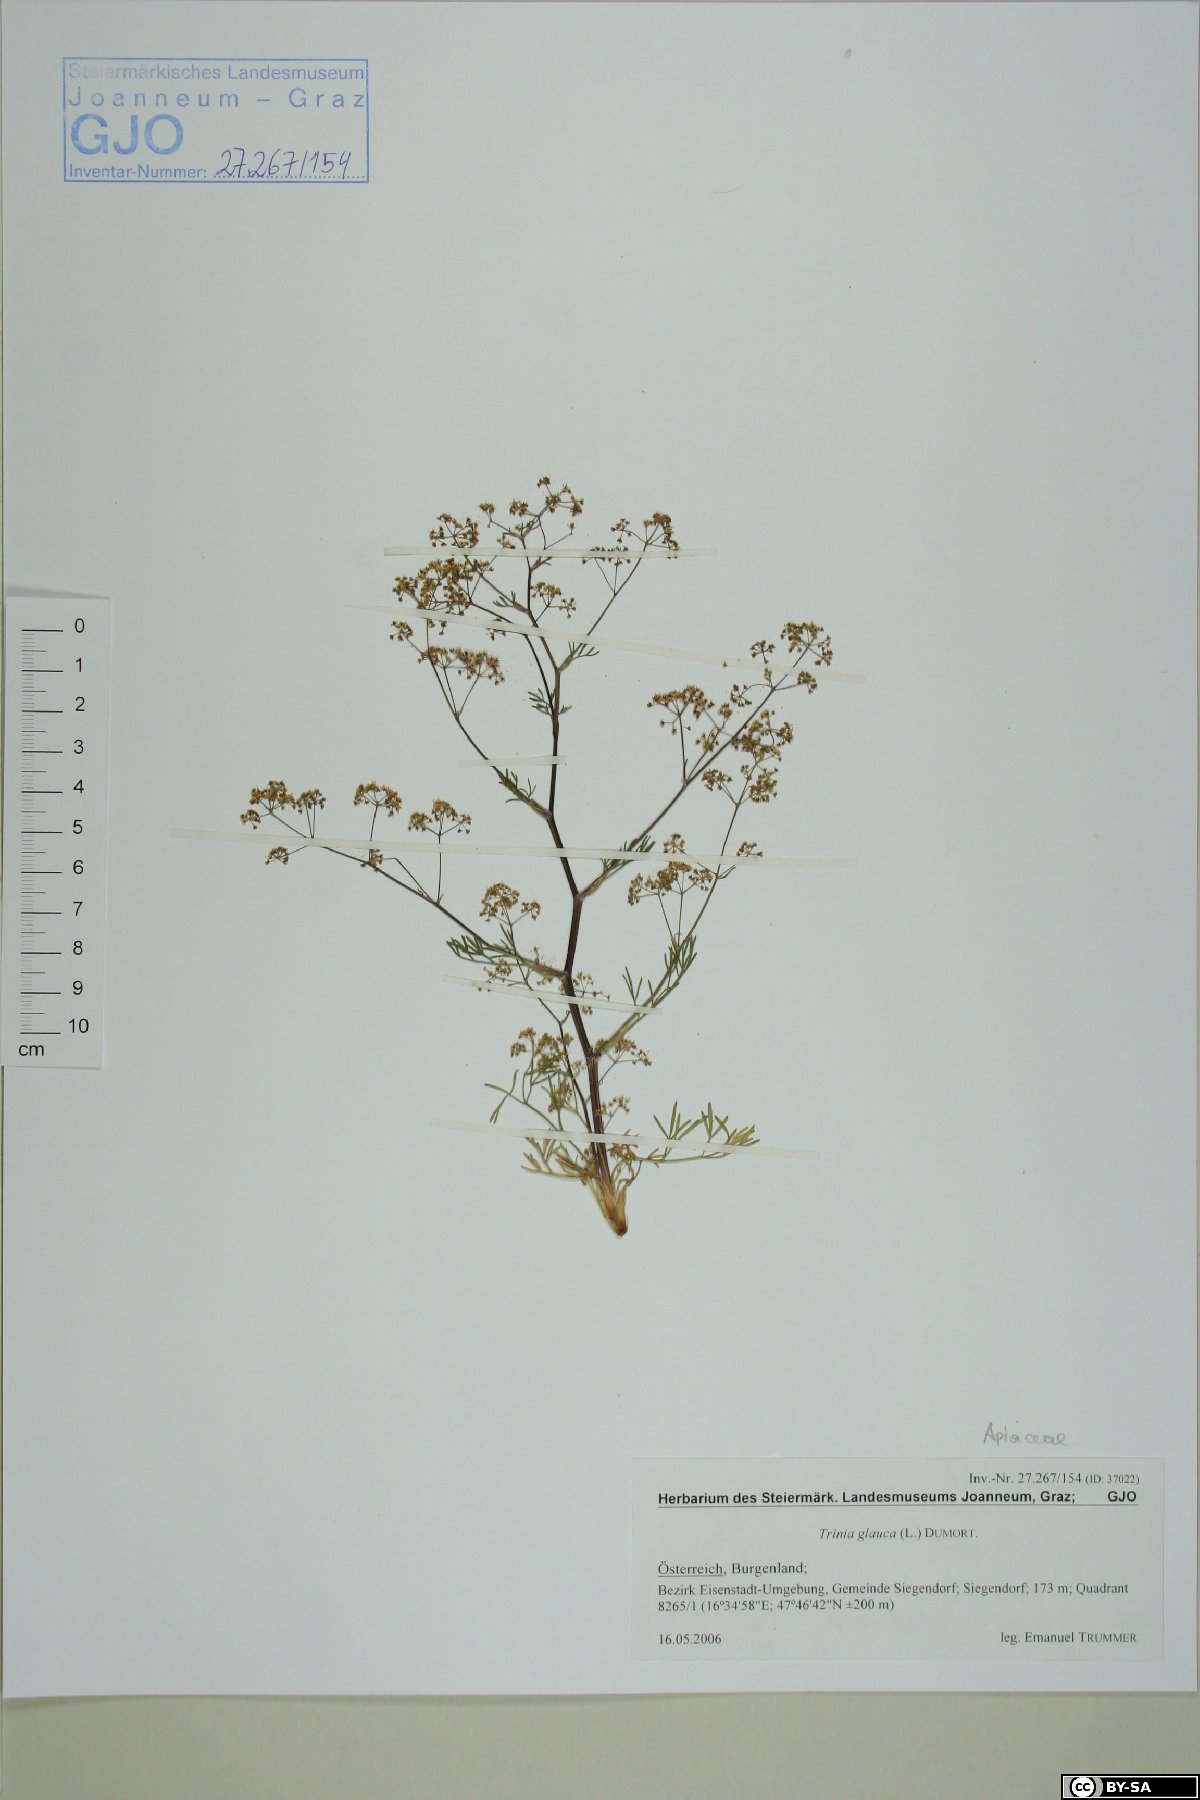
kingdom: Plantae
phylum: Tracheophyta
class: Magnoliopsida
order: Apiales
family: Apiaceae
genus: Trinia
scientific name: Trinia glauca
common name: Honewort
